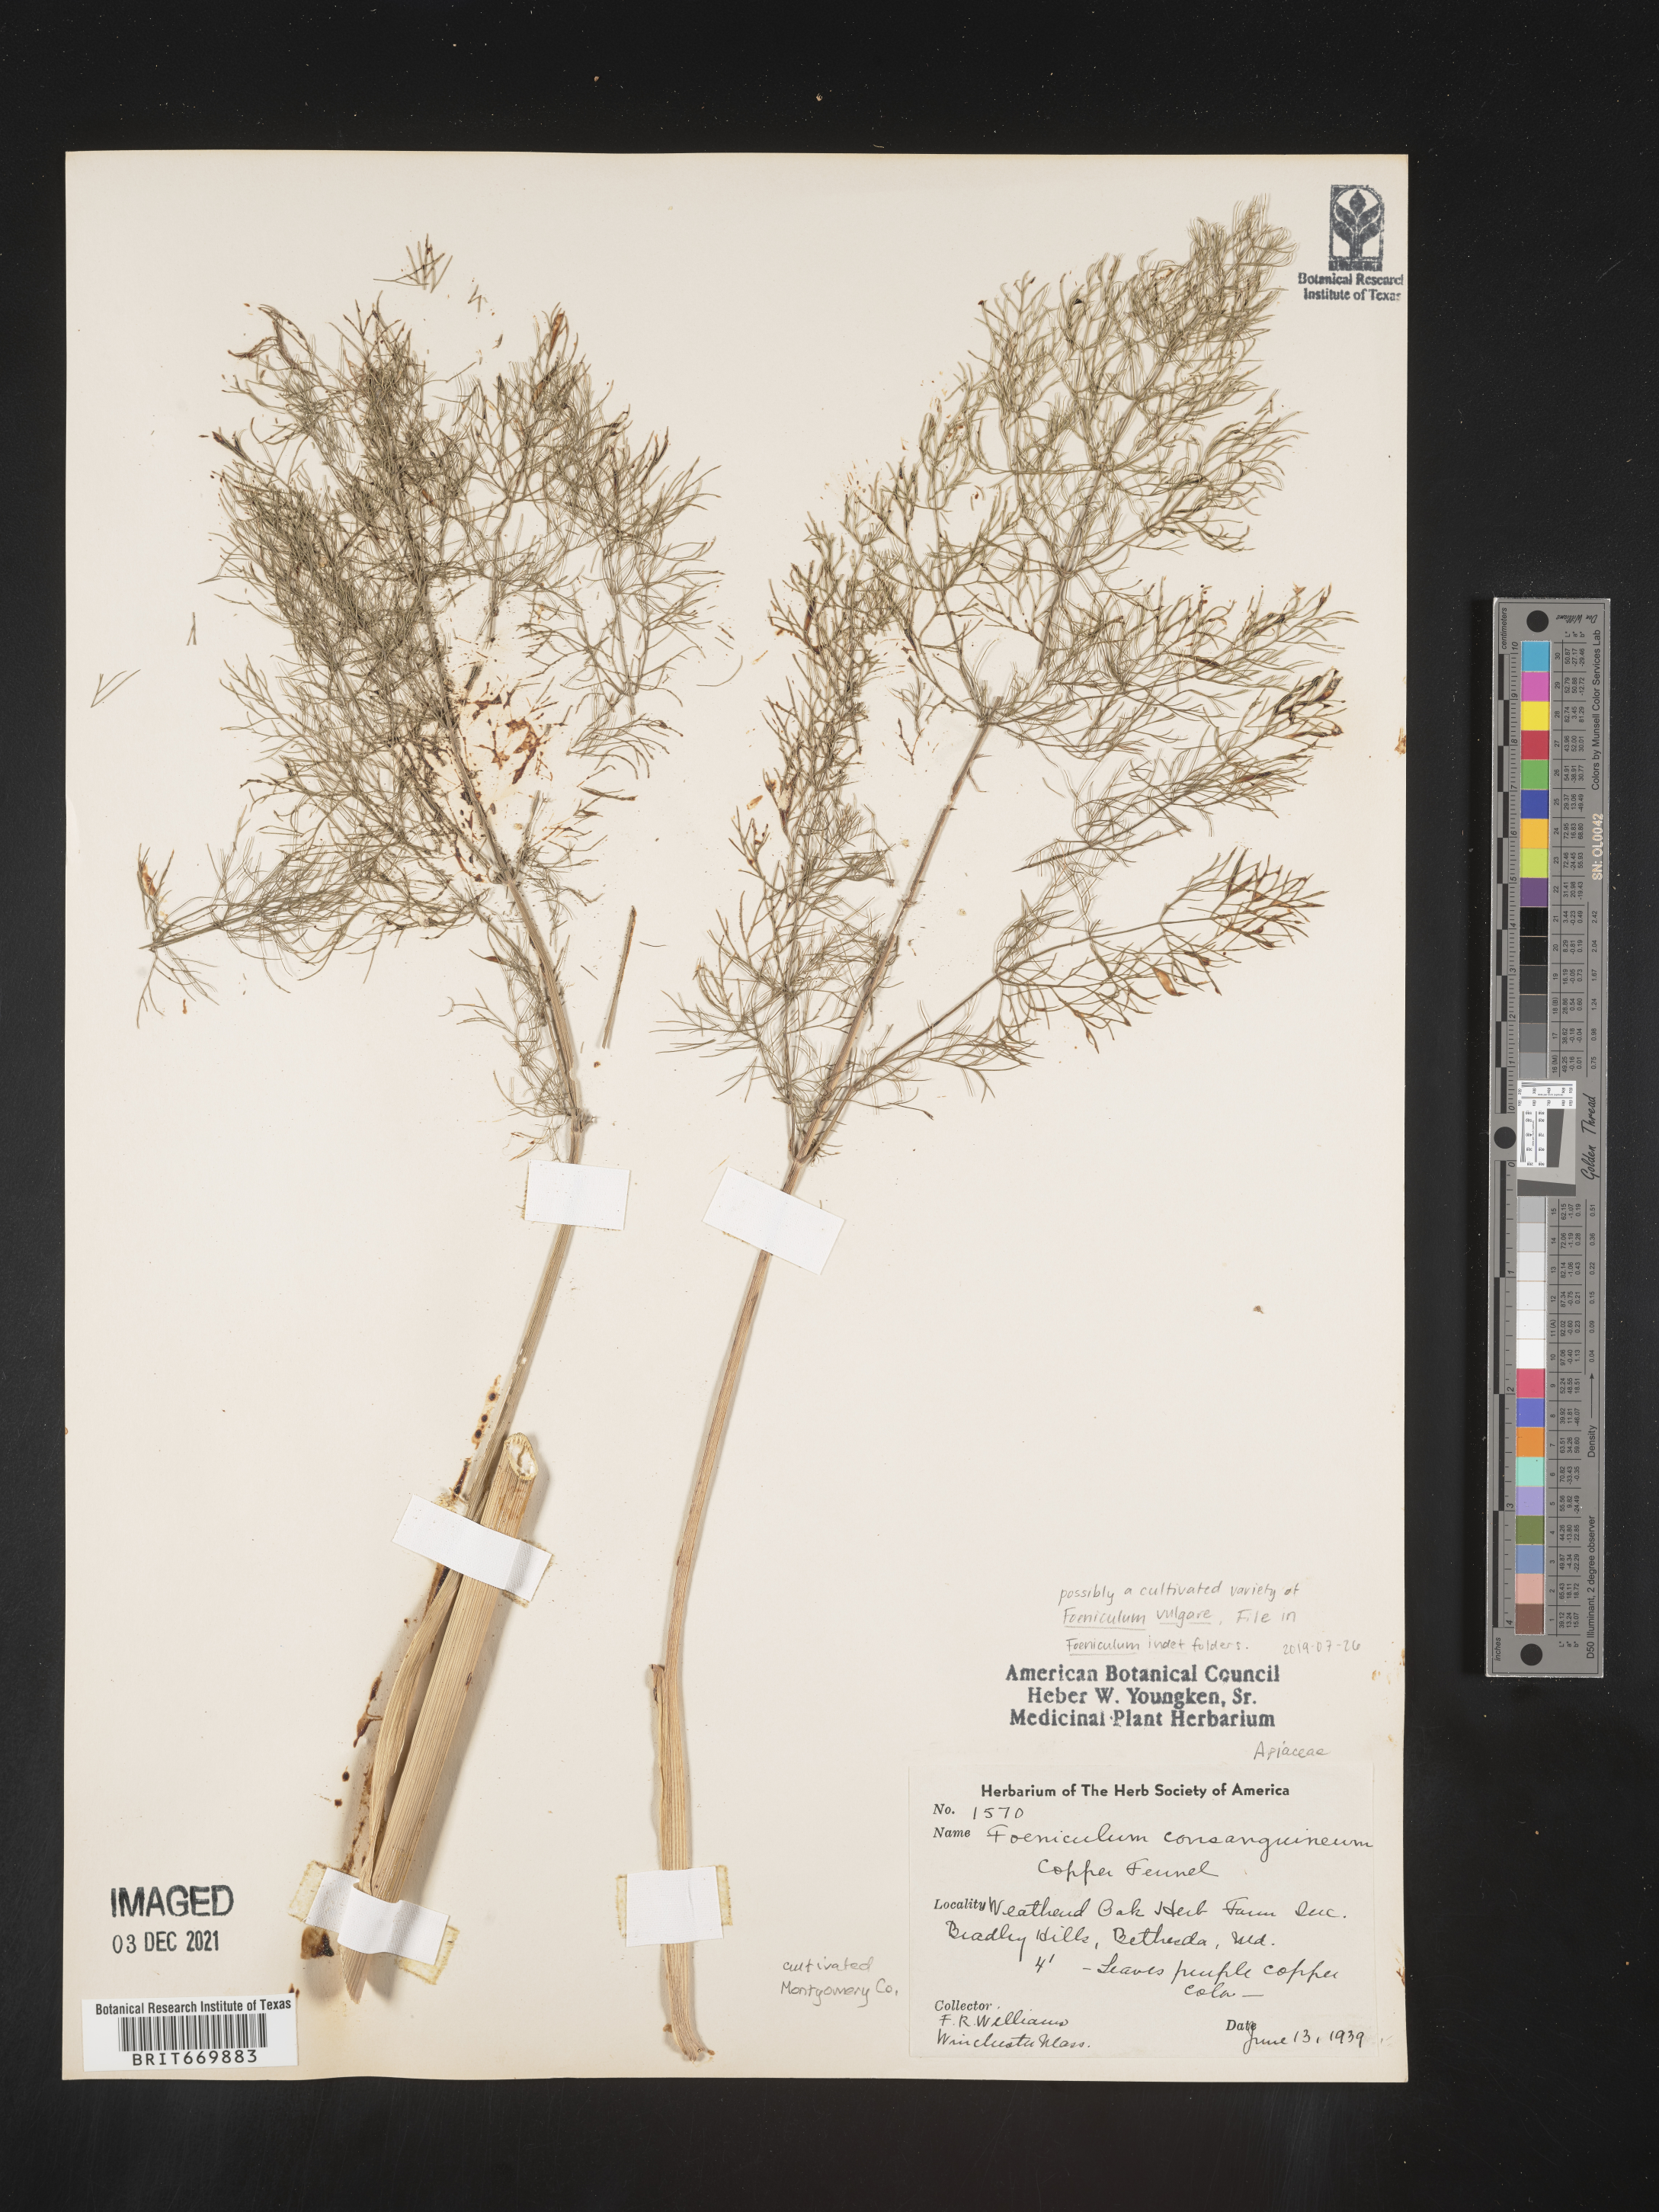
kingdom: Plantae
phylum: Tracheophyta
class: Magnoliopsida
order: Apiales
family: Apiaceae
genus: Foeniculum
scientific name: Foeniculum
